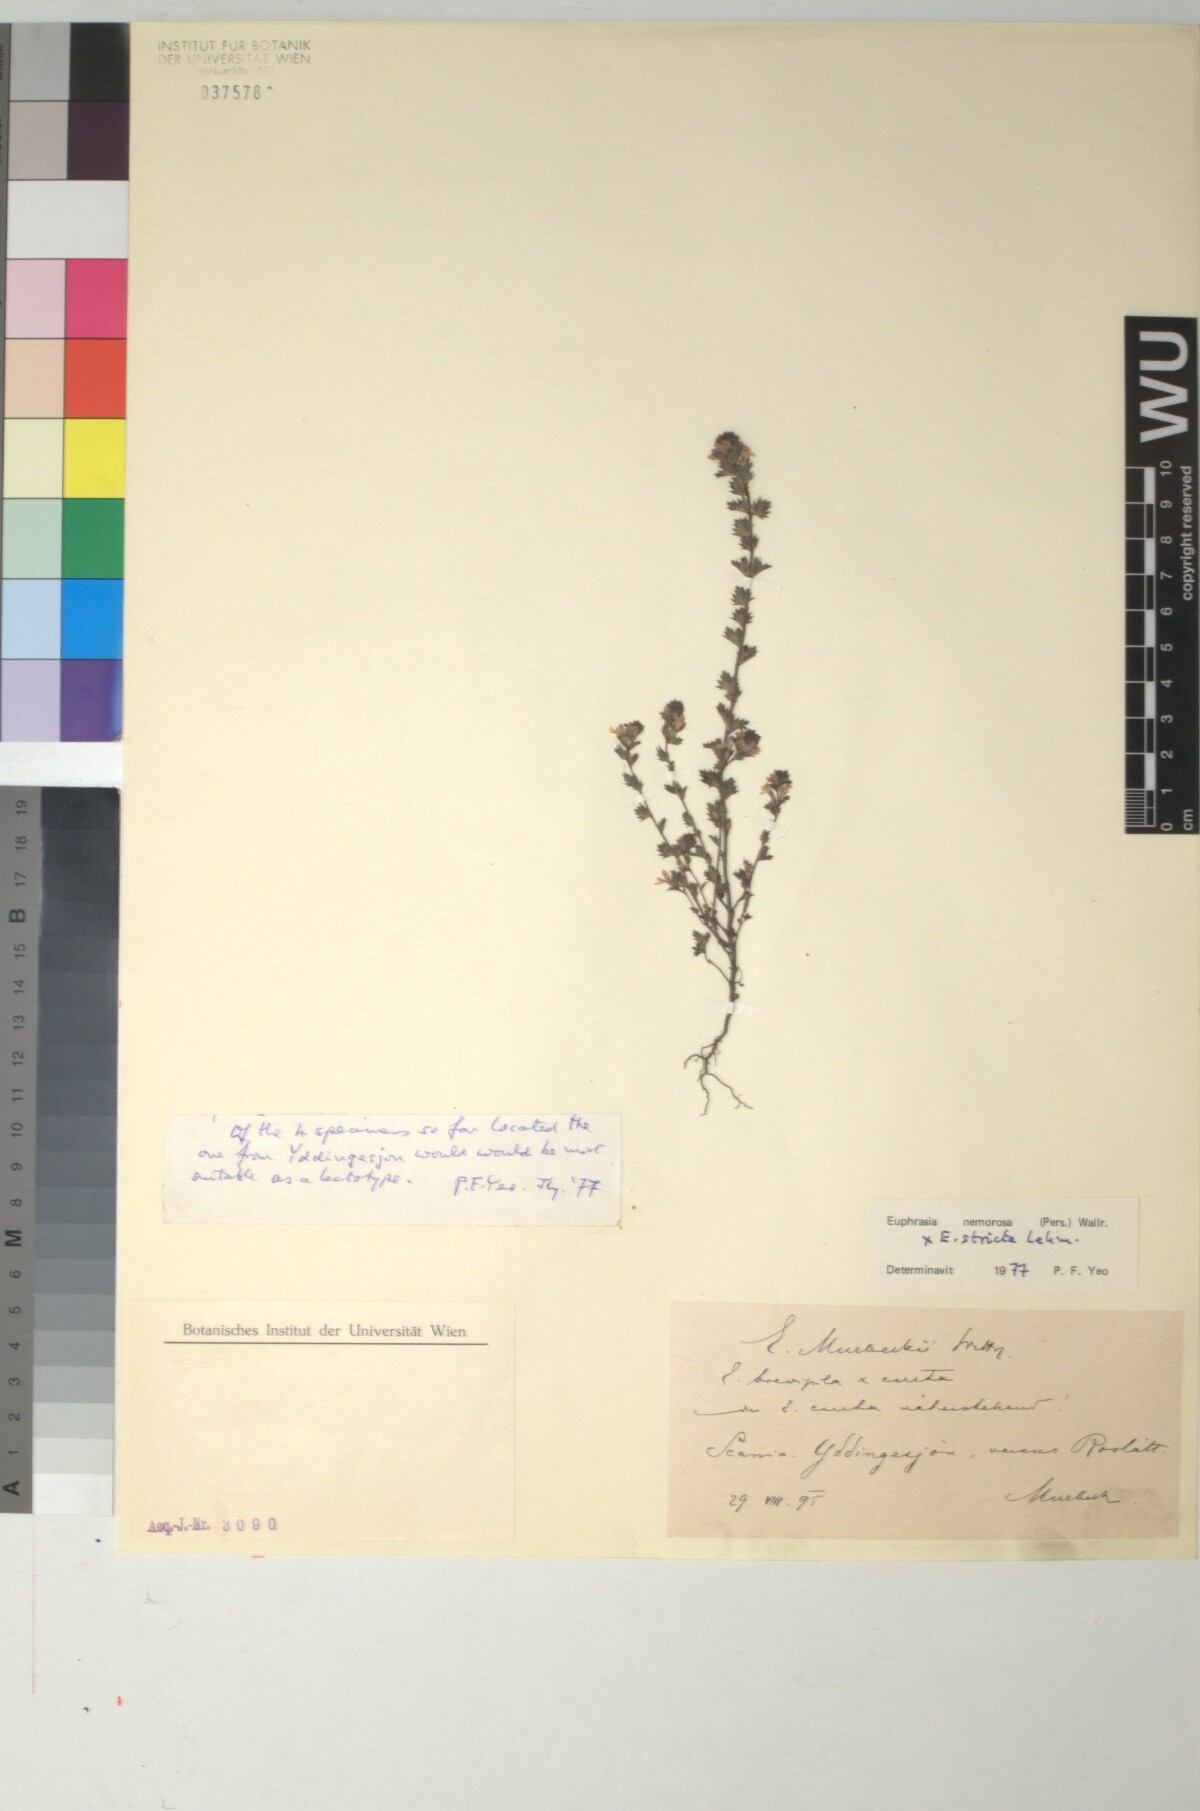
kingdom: Plantae
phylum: Tracheophyta
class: Magnoliopsida
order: Lamiales
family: Scrophulariaceae
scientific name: Scrophulariaceae
